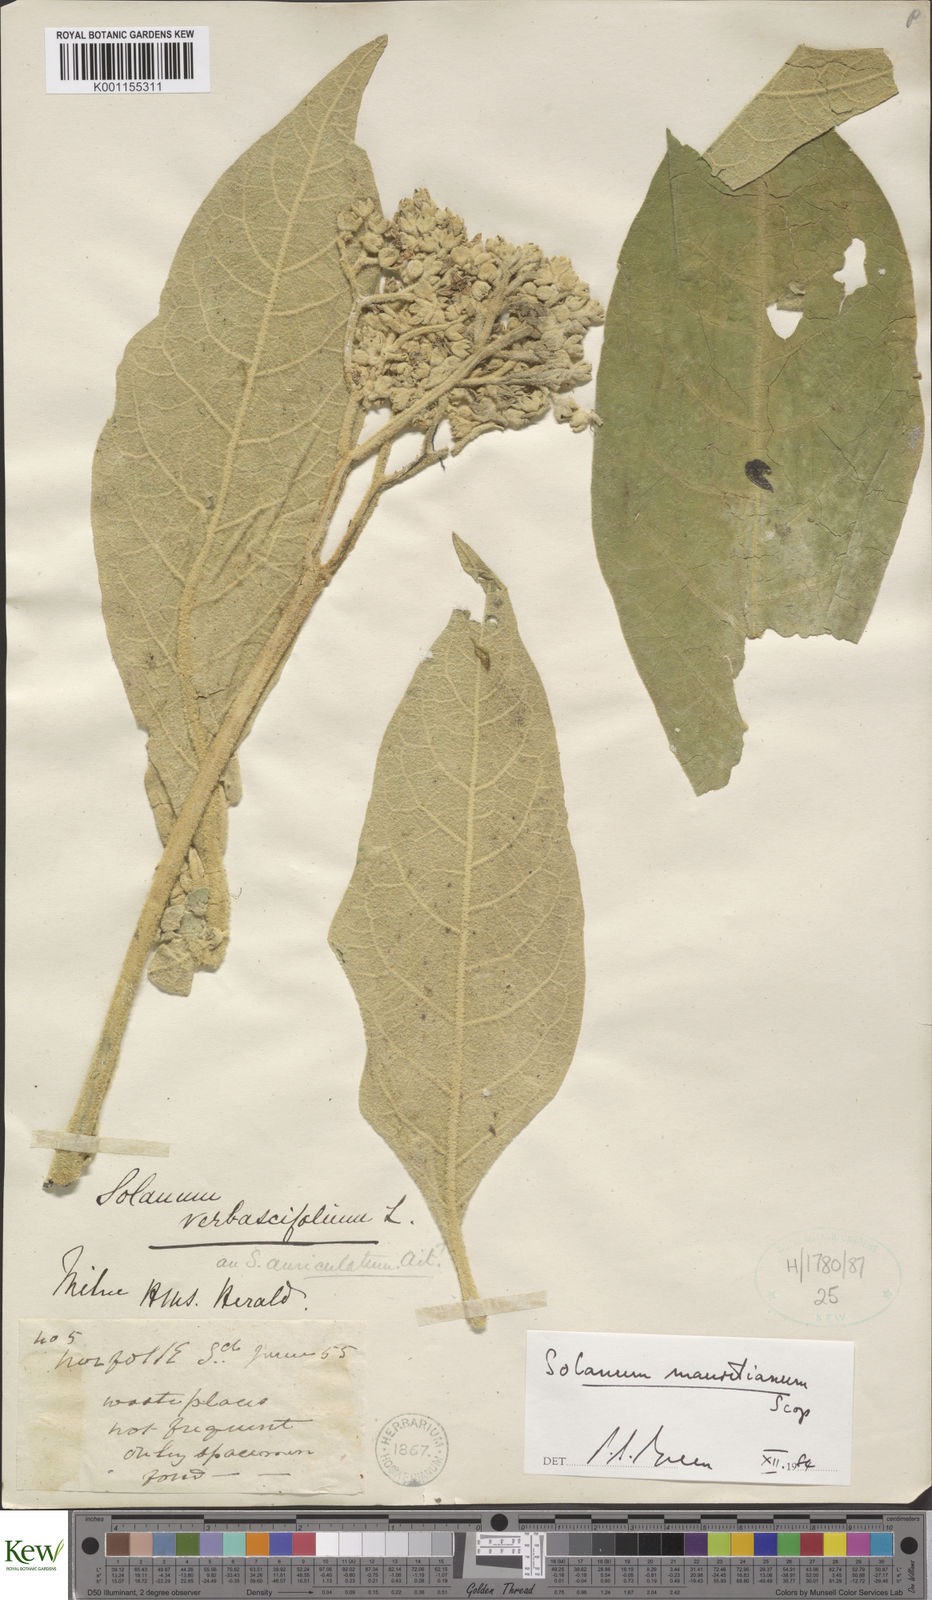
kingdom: Plantae
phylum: Tracheophyta
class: Magnoliopsida
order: Solanales
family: Solanaceae
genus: Solanum
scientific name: Solanum mauritianum
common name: Earleaf nightshade
